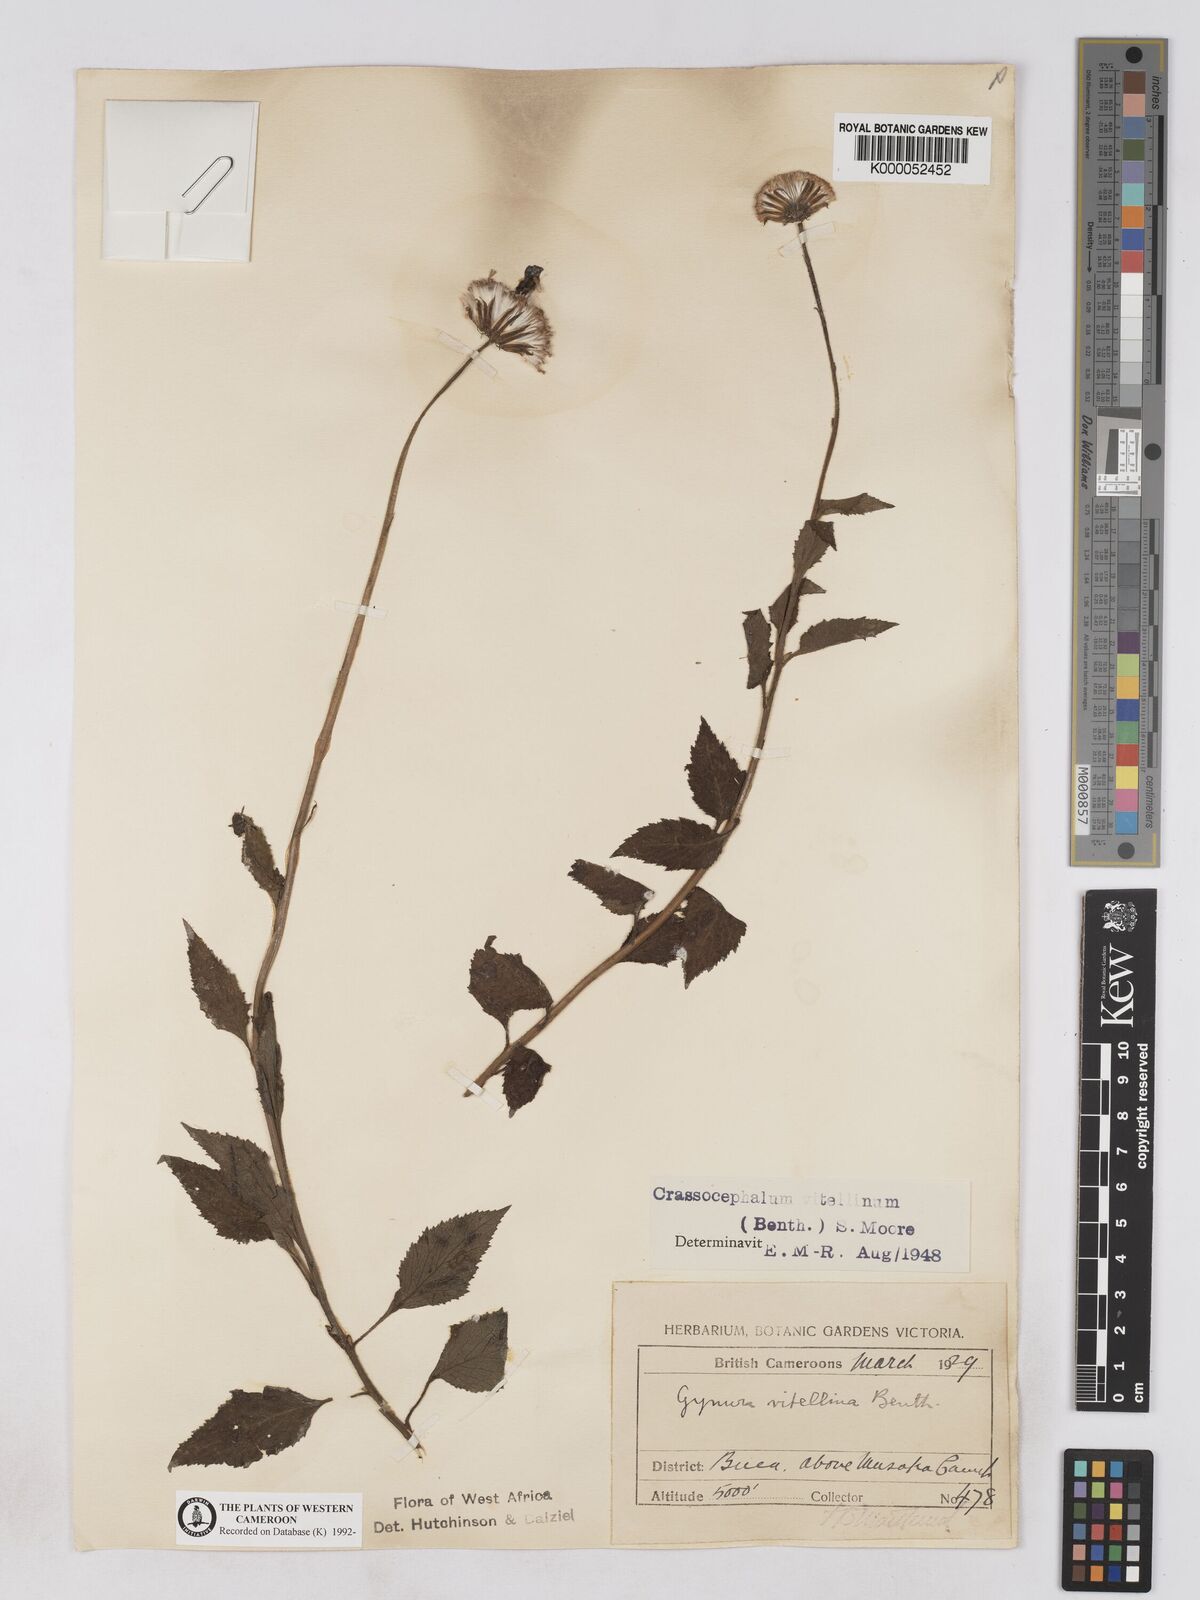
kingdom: Plantae
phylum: Tracheophyta
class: Magnoliopsida
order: Asterales
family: Asteraceae
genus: Crassocephalum
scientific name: Crassocephalum bougheyanum
